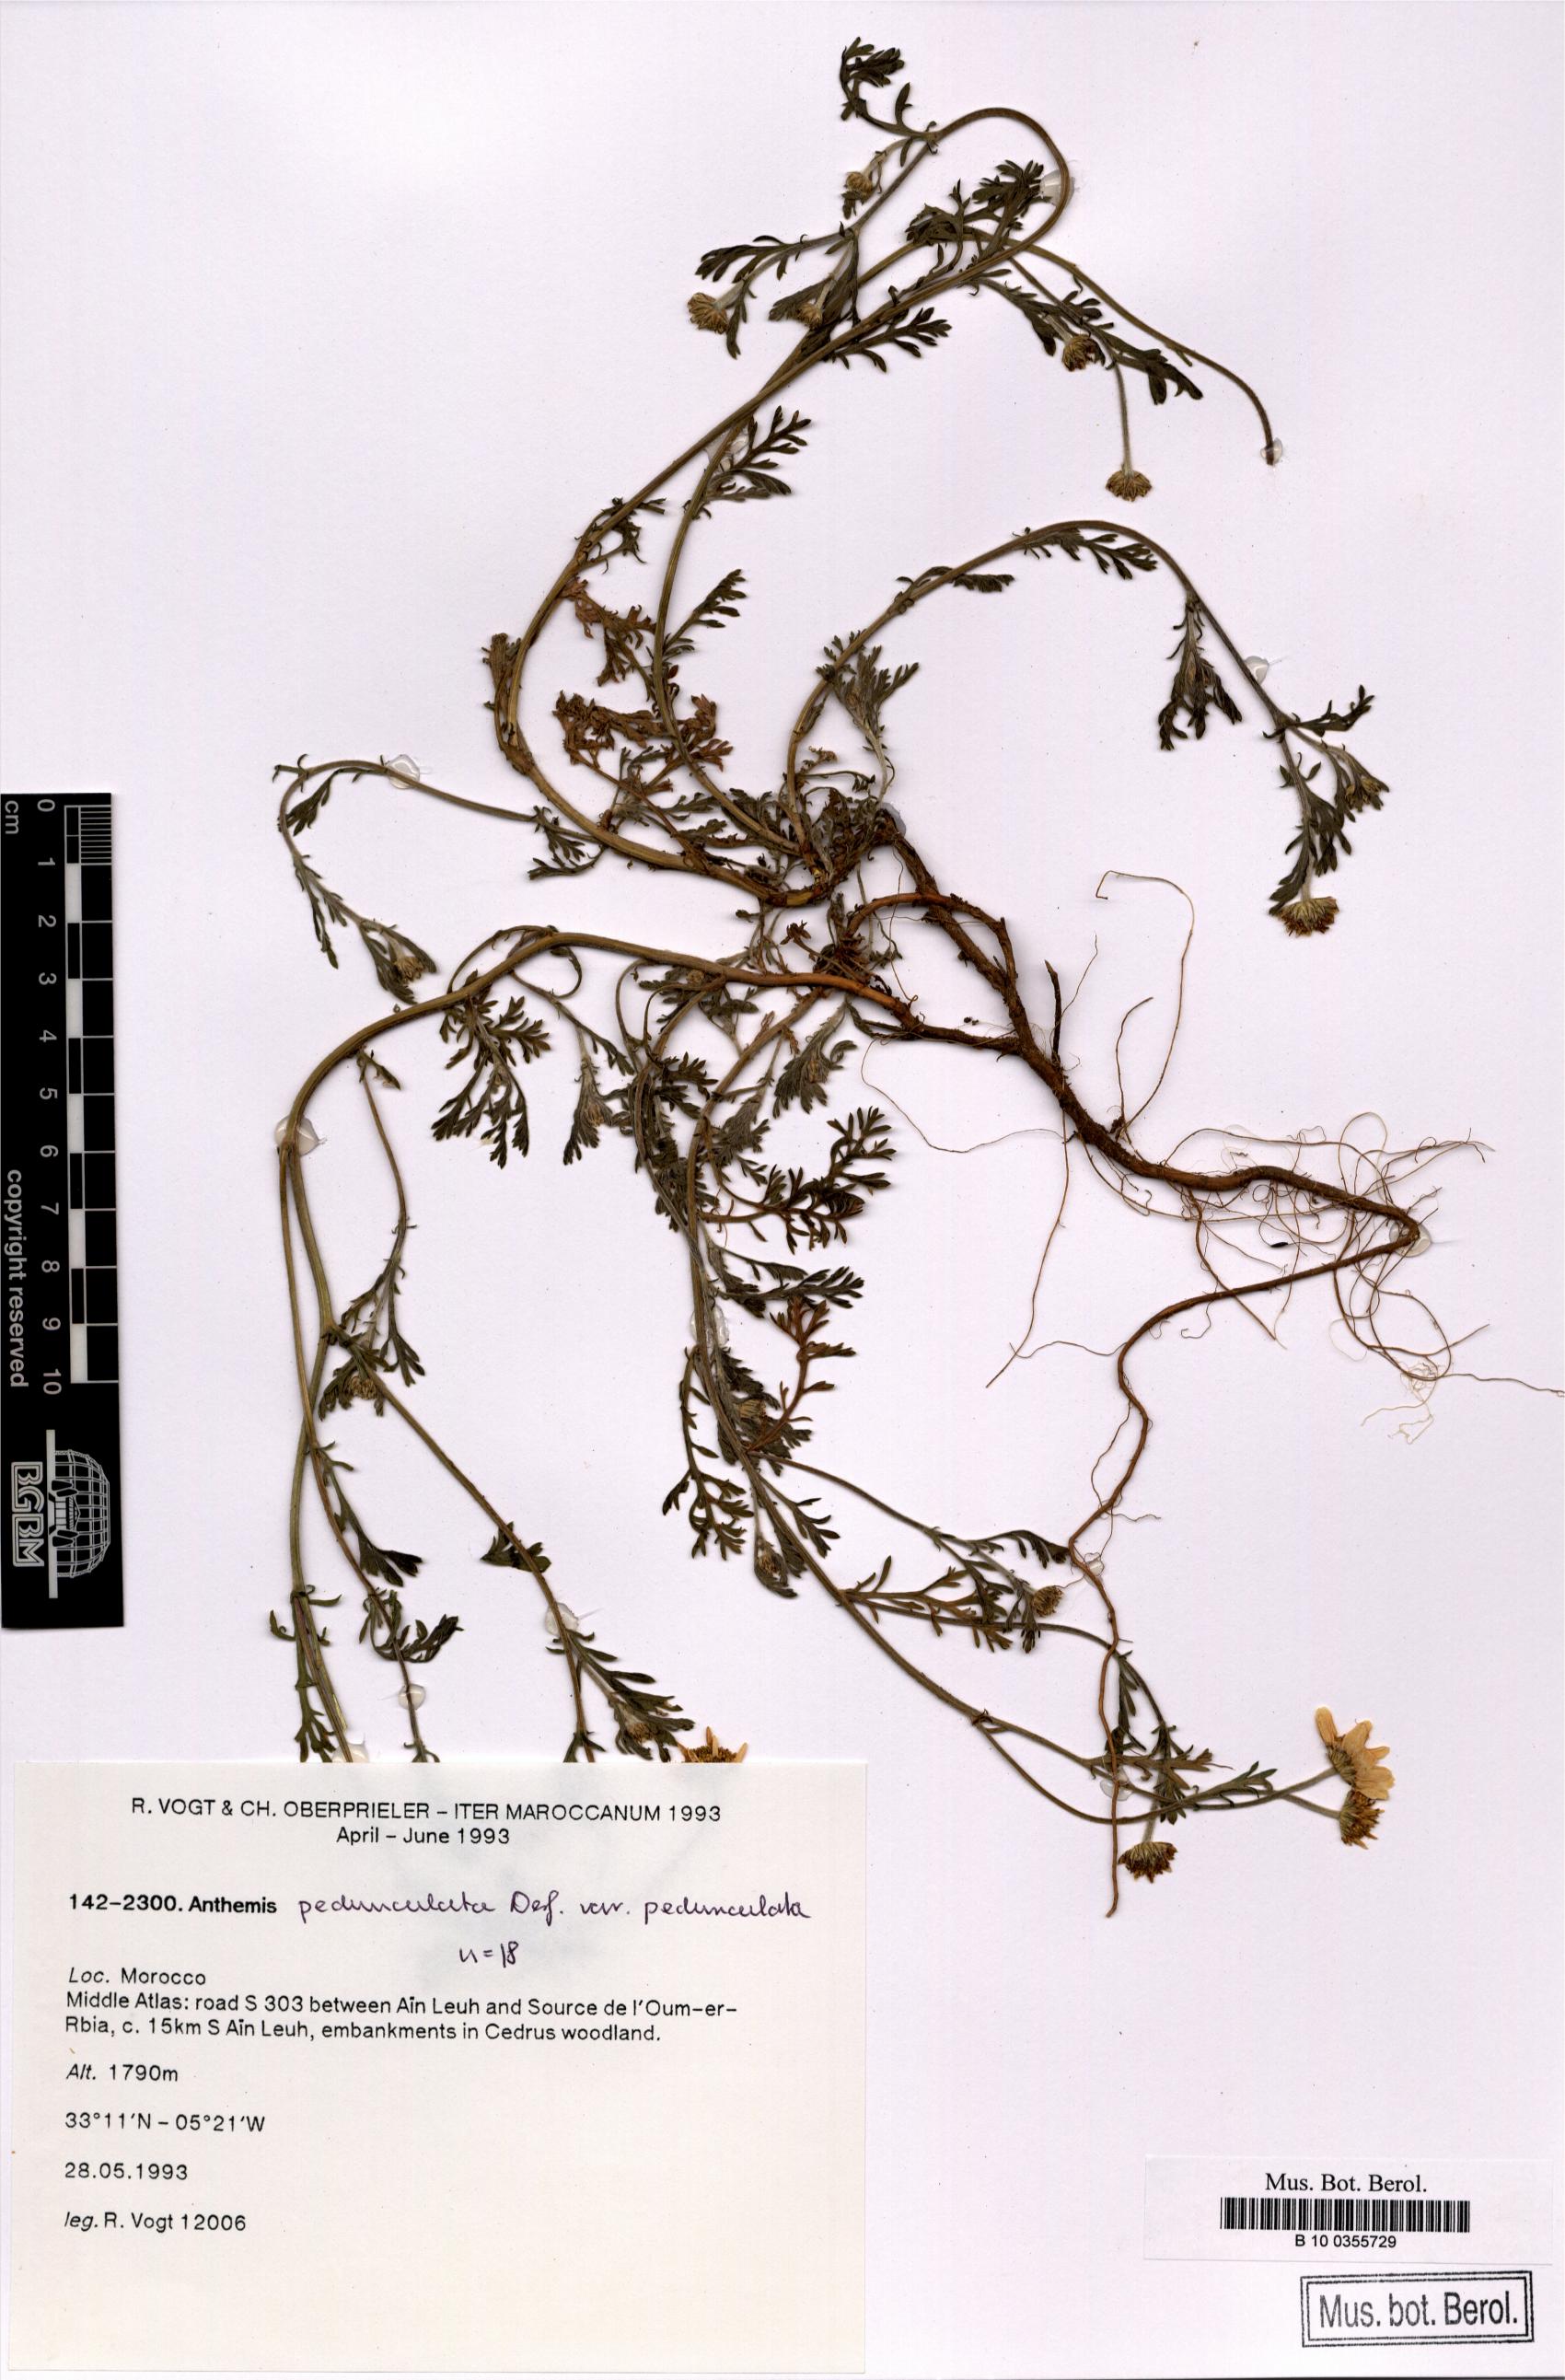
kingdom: Plantae
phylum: Tracheophyta
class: Magnoliopsida
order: Asterales
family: Asteraceae
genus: Anthemis
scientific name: Anthemis pedunculata
